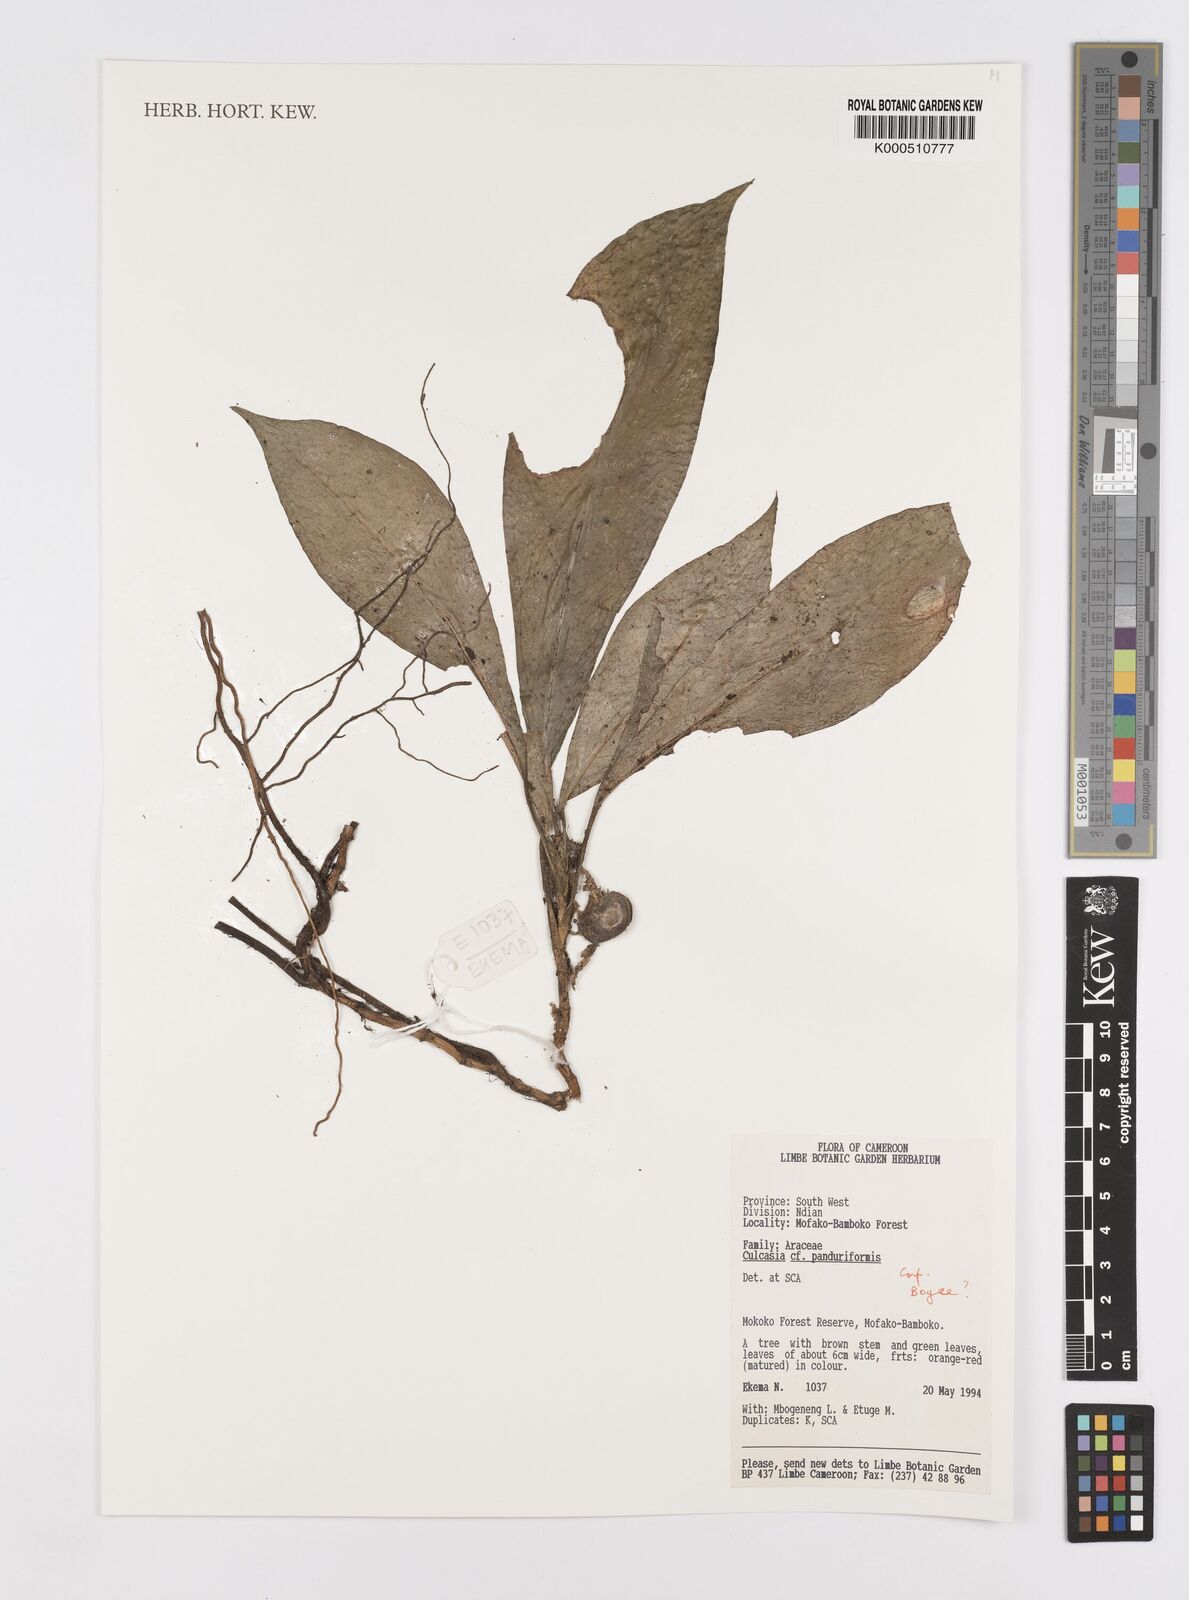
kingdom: Plantae
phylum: Tracheophyta
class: Liliopsida
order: Alismatales
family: Araceae
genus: Culcasia
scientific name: Culcasia panduriformis
